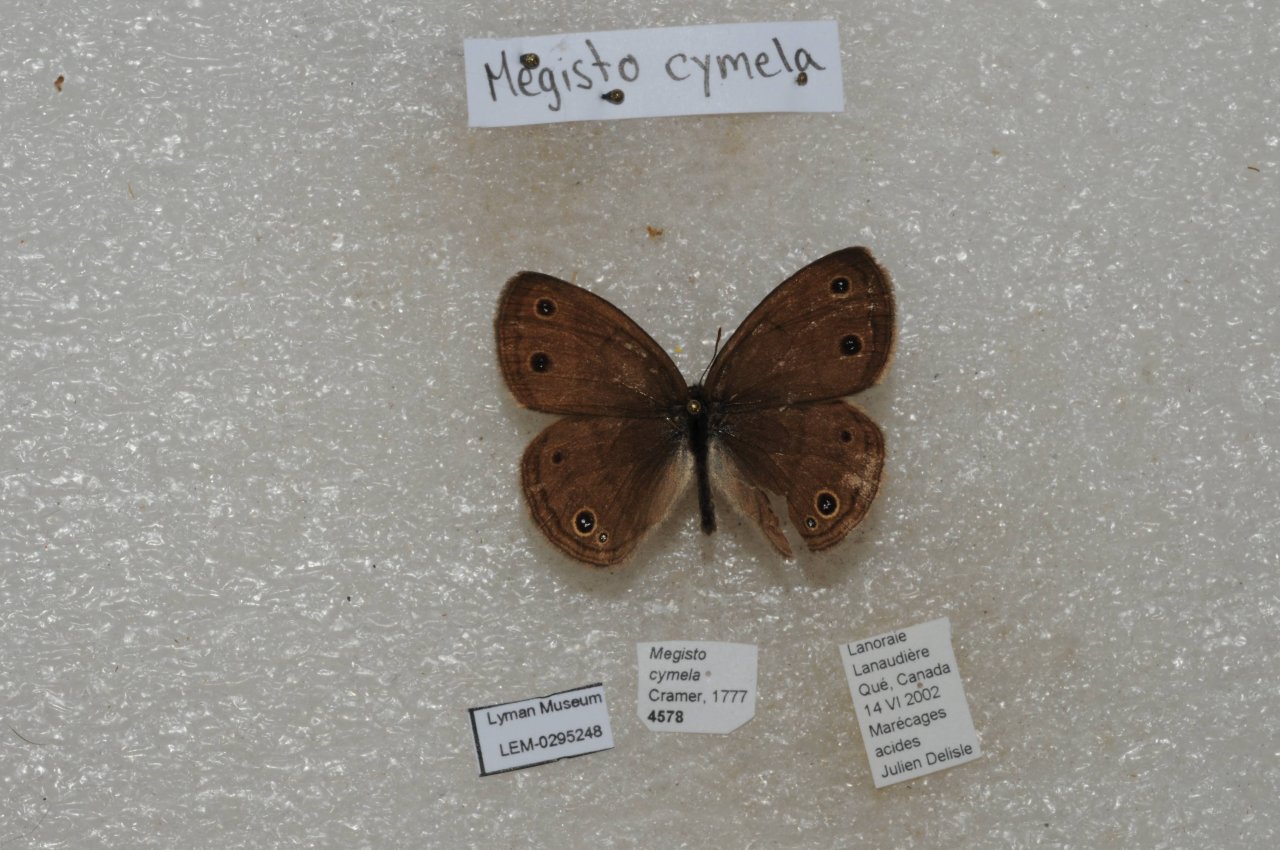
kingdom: Animalia
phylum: Arthropoda
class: Insecta
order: Lepidoptera
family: Nymphalidae
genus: Euptychia
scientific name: Euptychia cymela
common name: Little Wood Satyr
